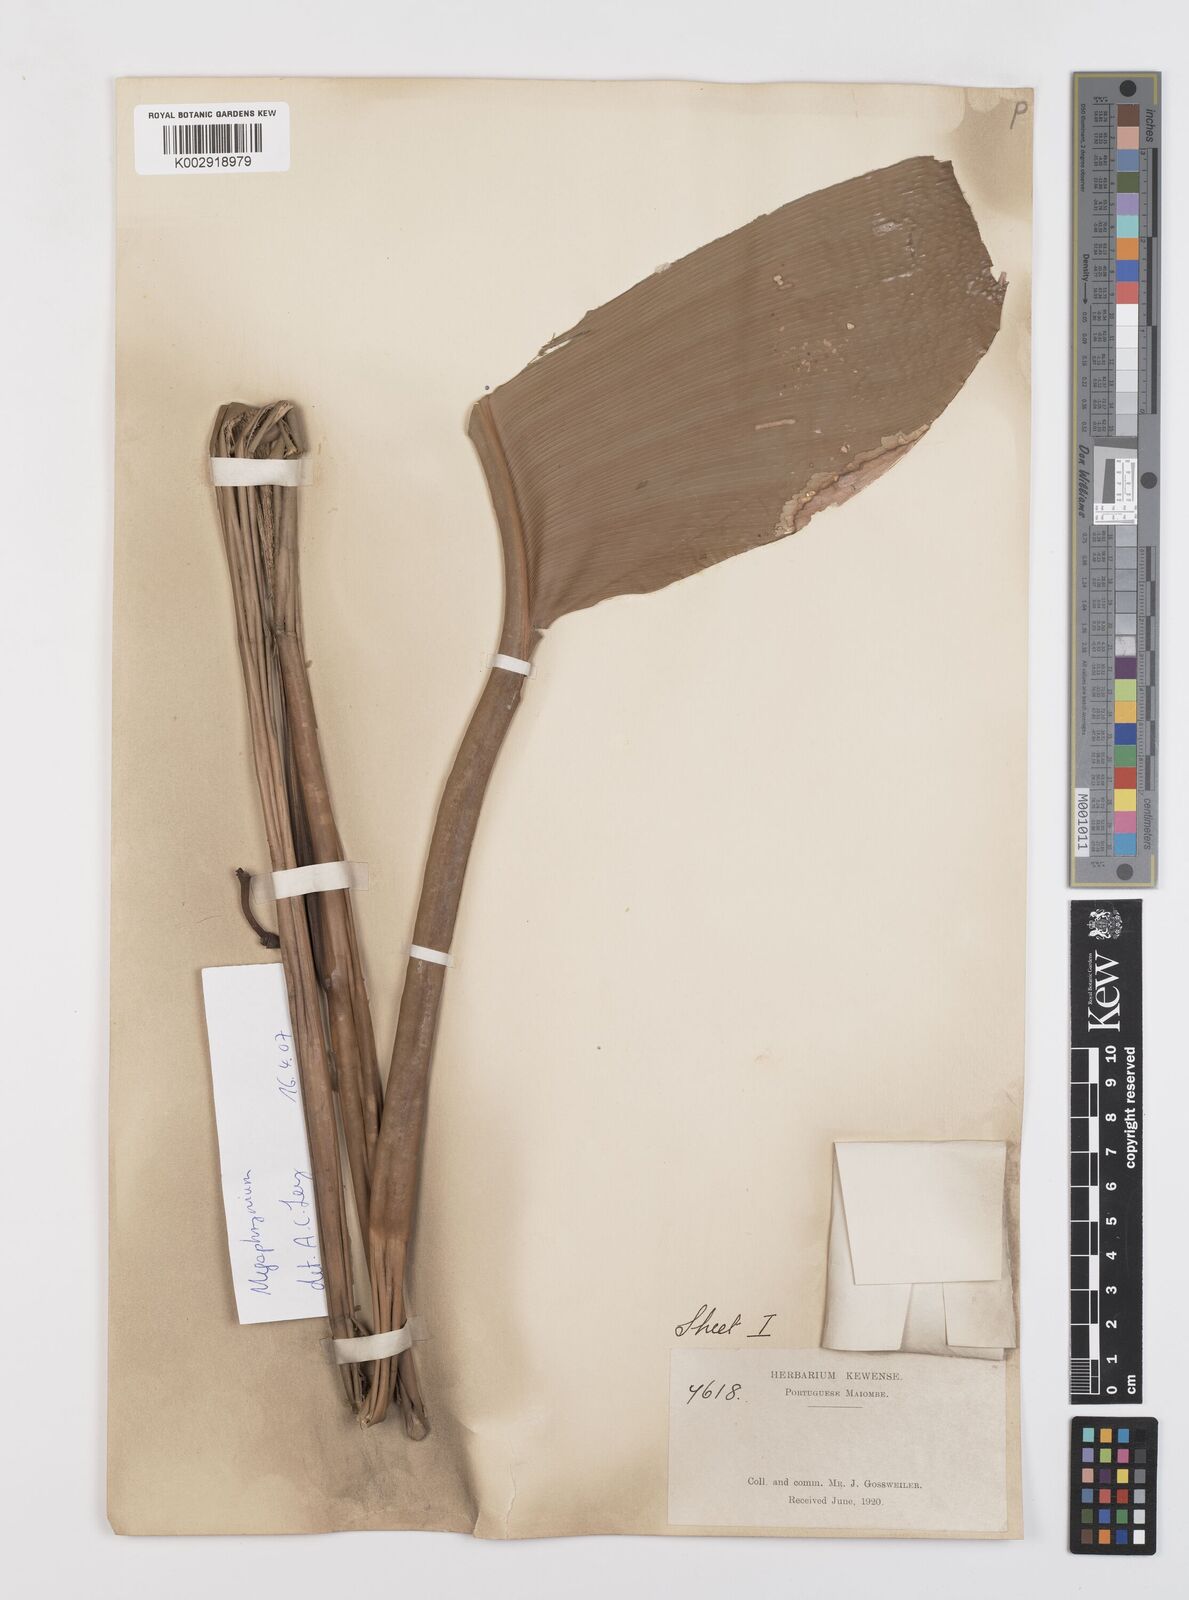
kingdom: Plantae
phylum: Tracheophyta
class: Liliopsida
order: Zingiberales
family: Marantaceae
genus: Megaphrynium
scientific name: Megaphrynium macrostachyum
